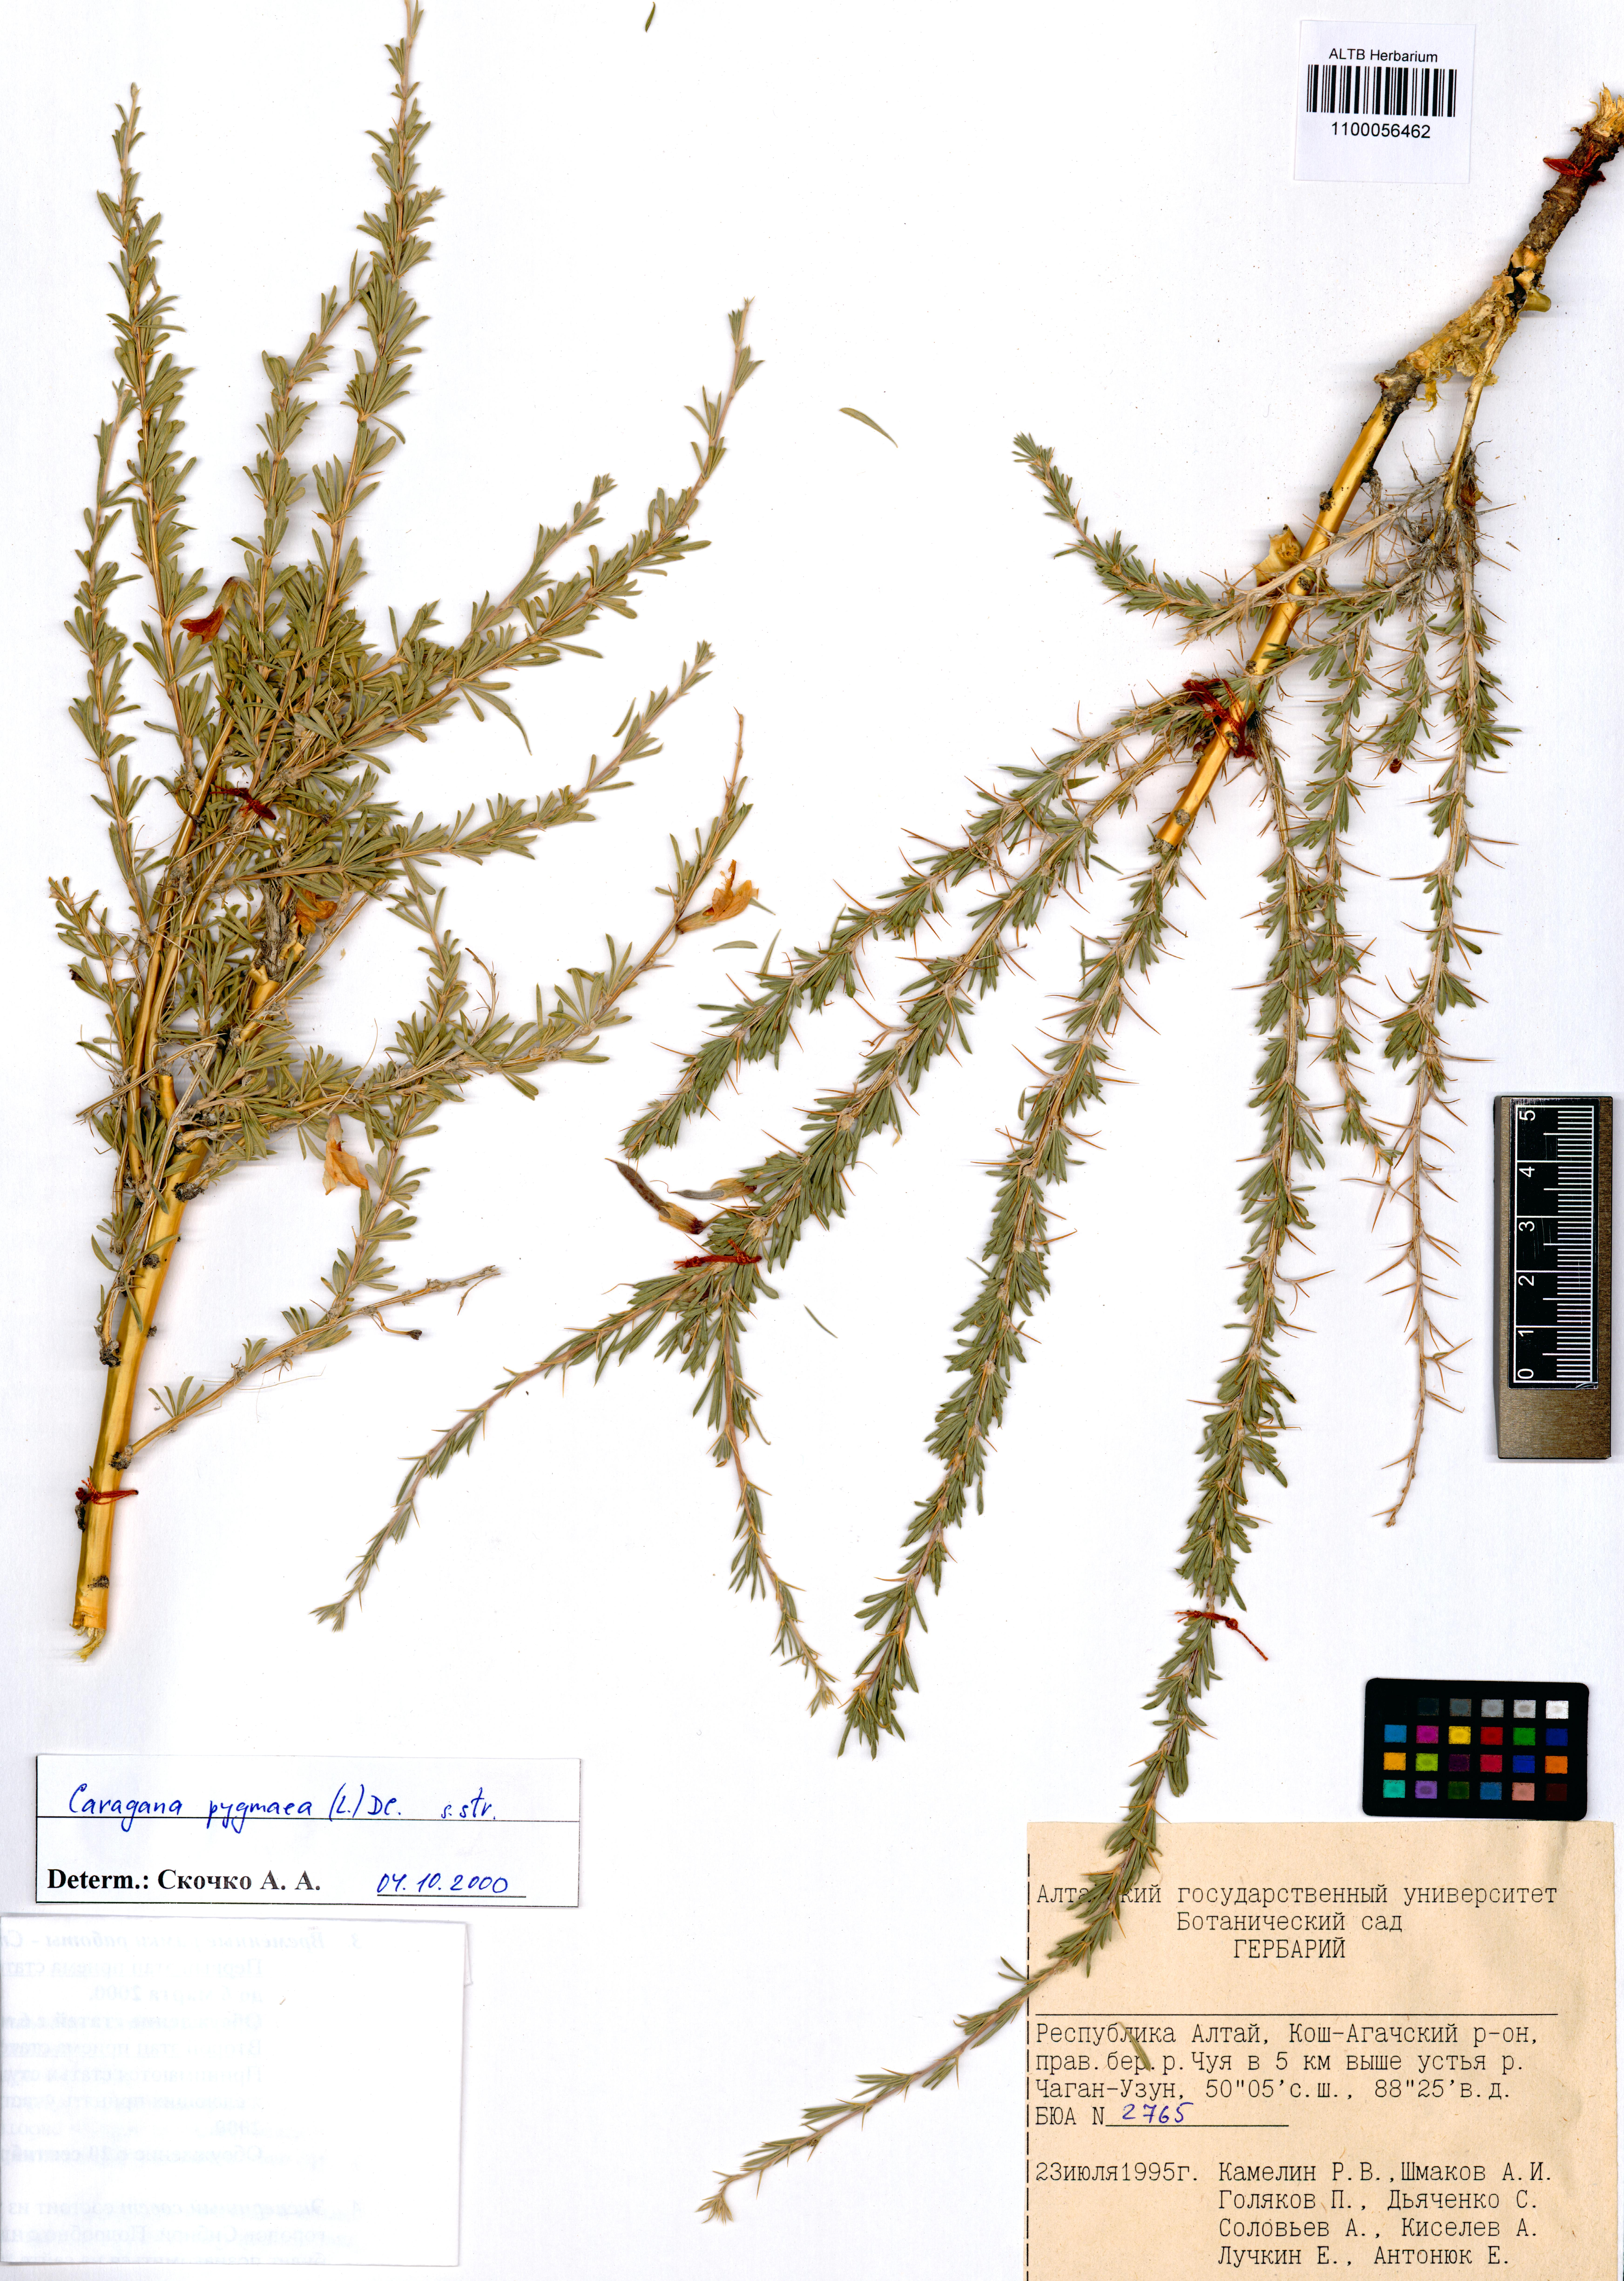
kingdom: Plantae
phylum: Tracheophyta
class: Magnoliopsida
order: Fabales
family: Fabaceae
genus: Caragana
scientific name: Caragana pygmaea
